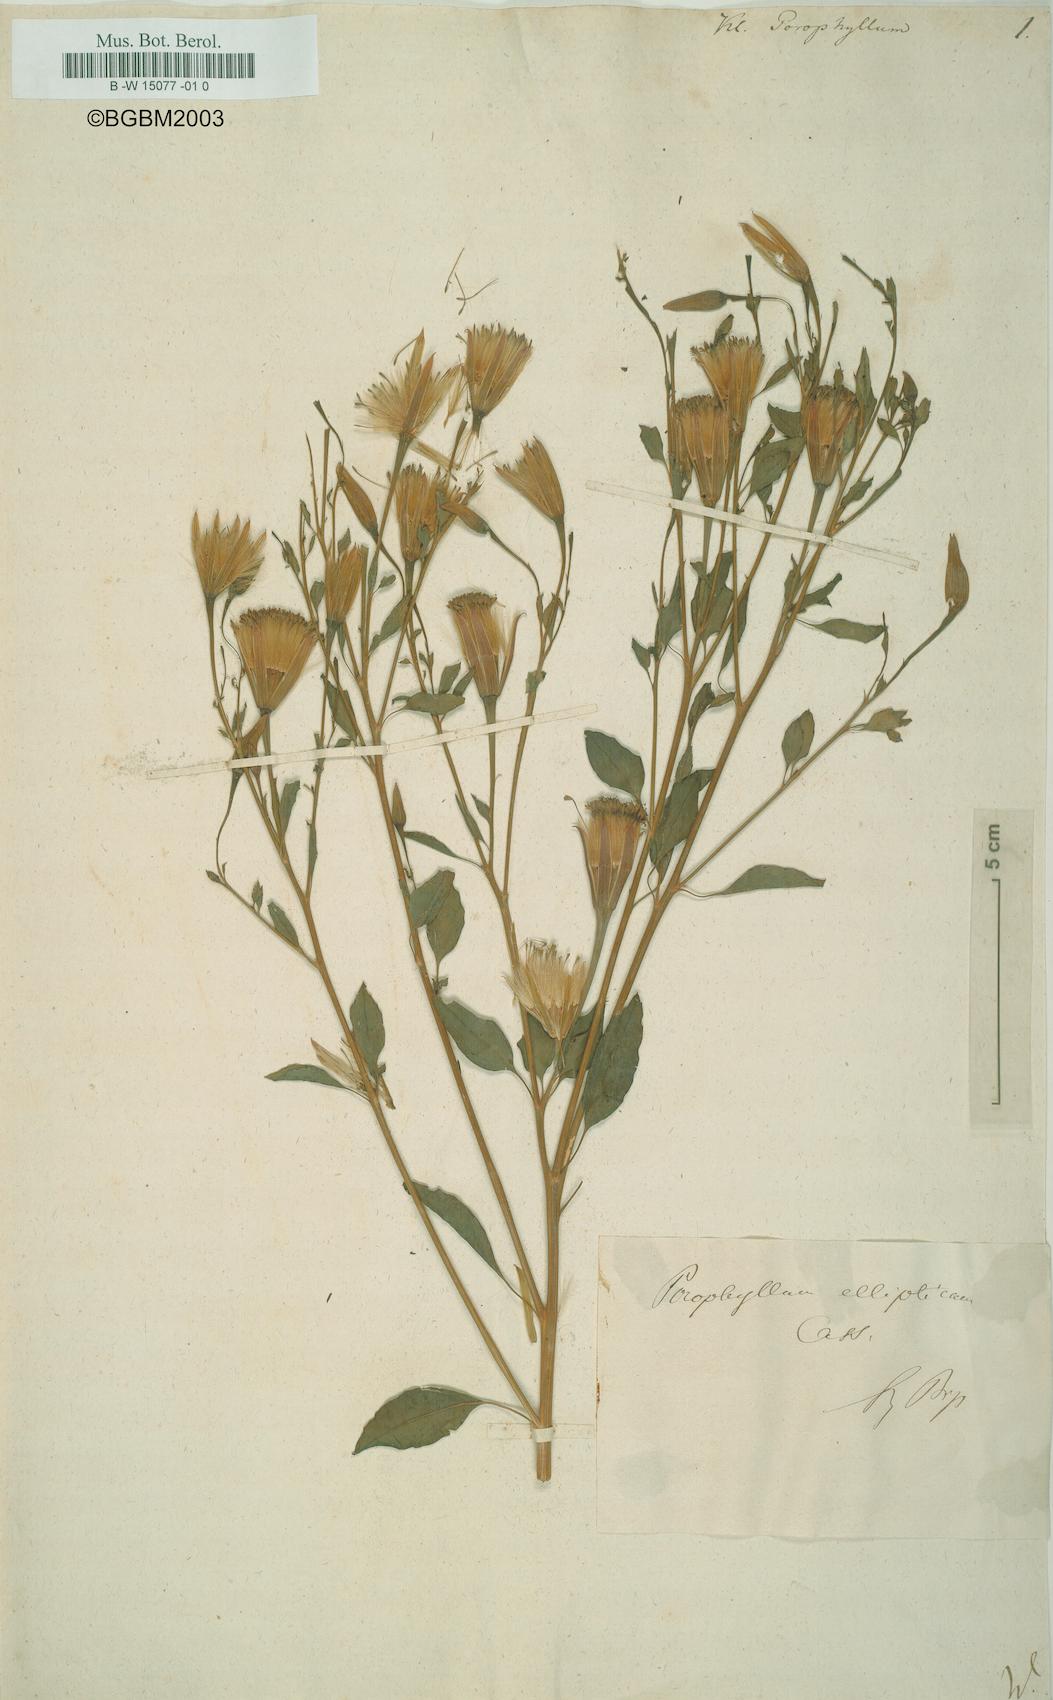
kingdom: Plantae
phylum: Tracheophyta
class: Magnoliopsida
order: Asterales
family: Asteraceae
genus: Porophyllum
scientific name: Porophyllum ruderale
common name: Yerba porosa
